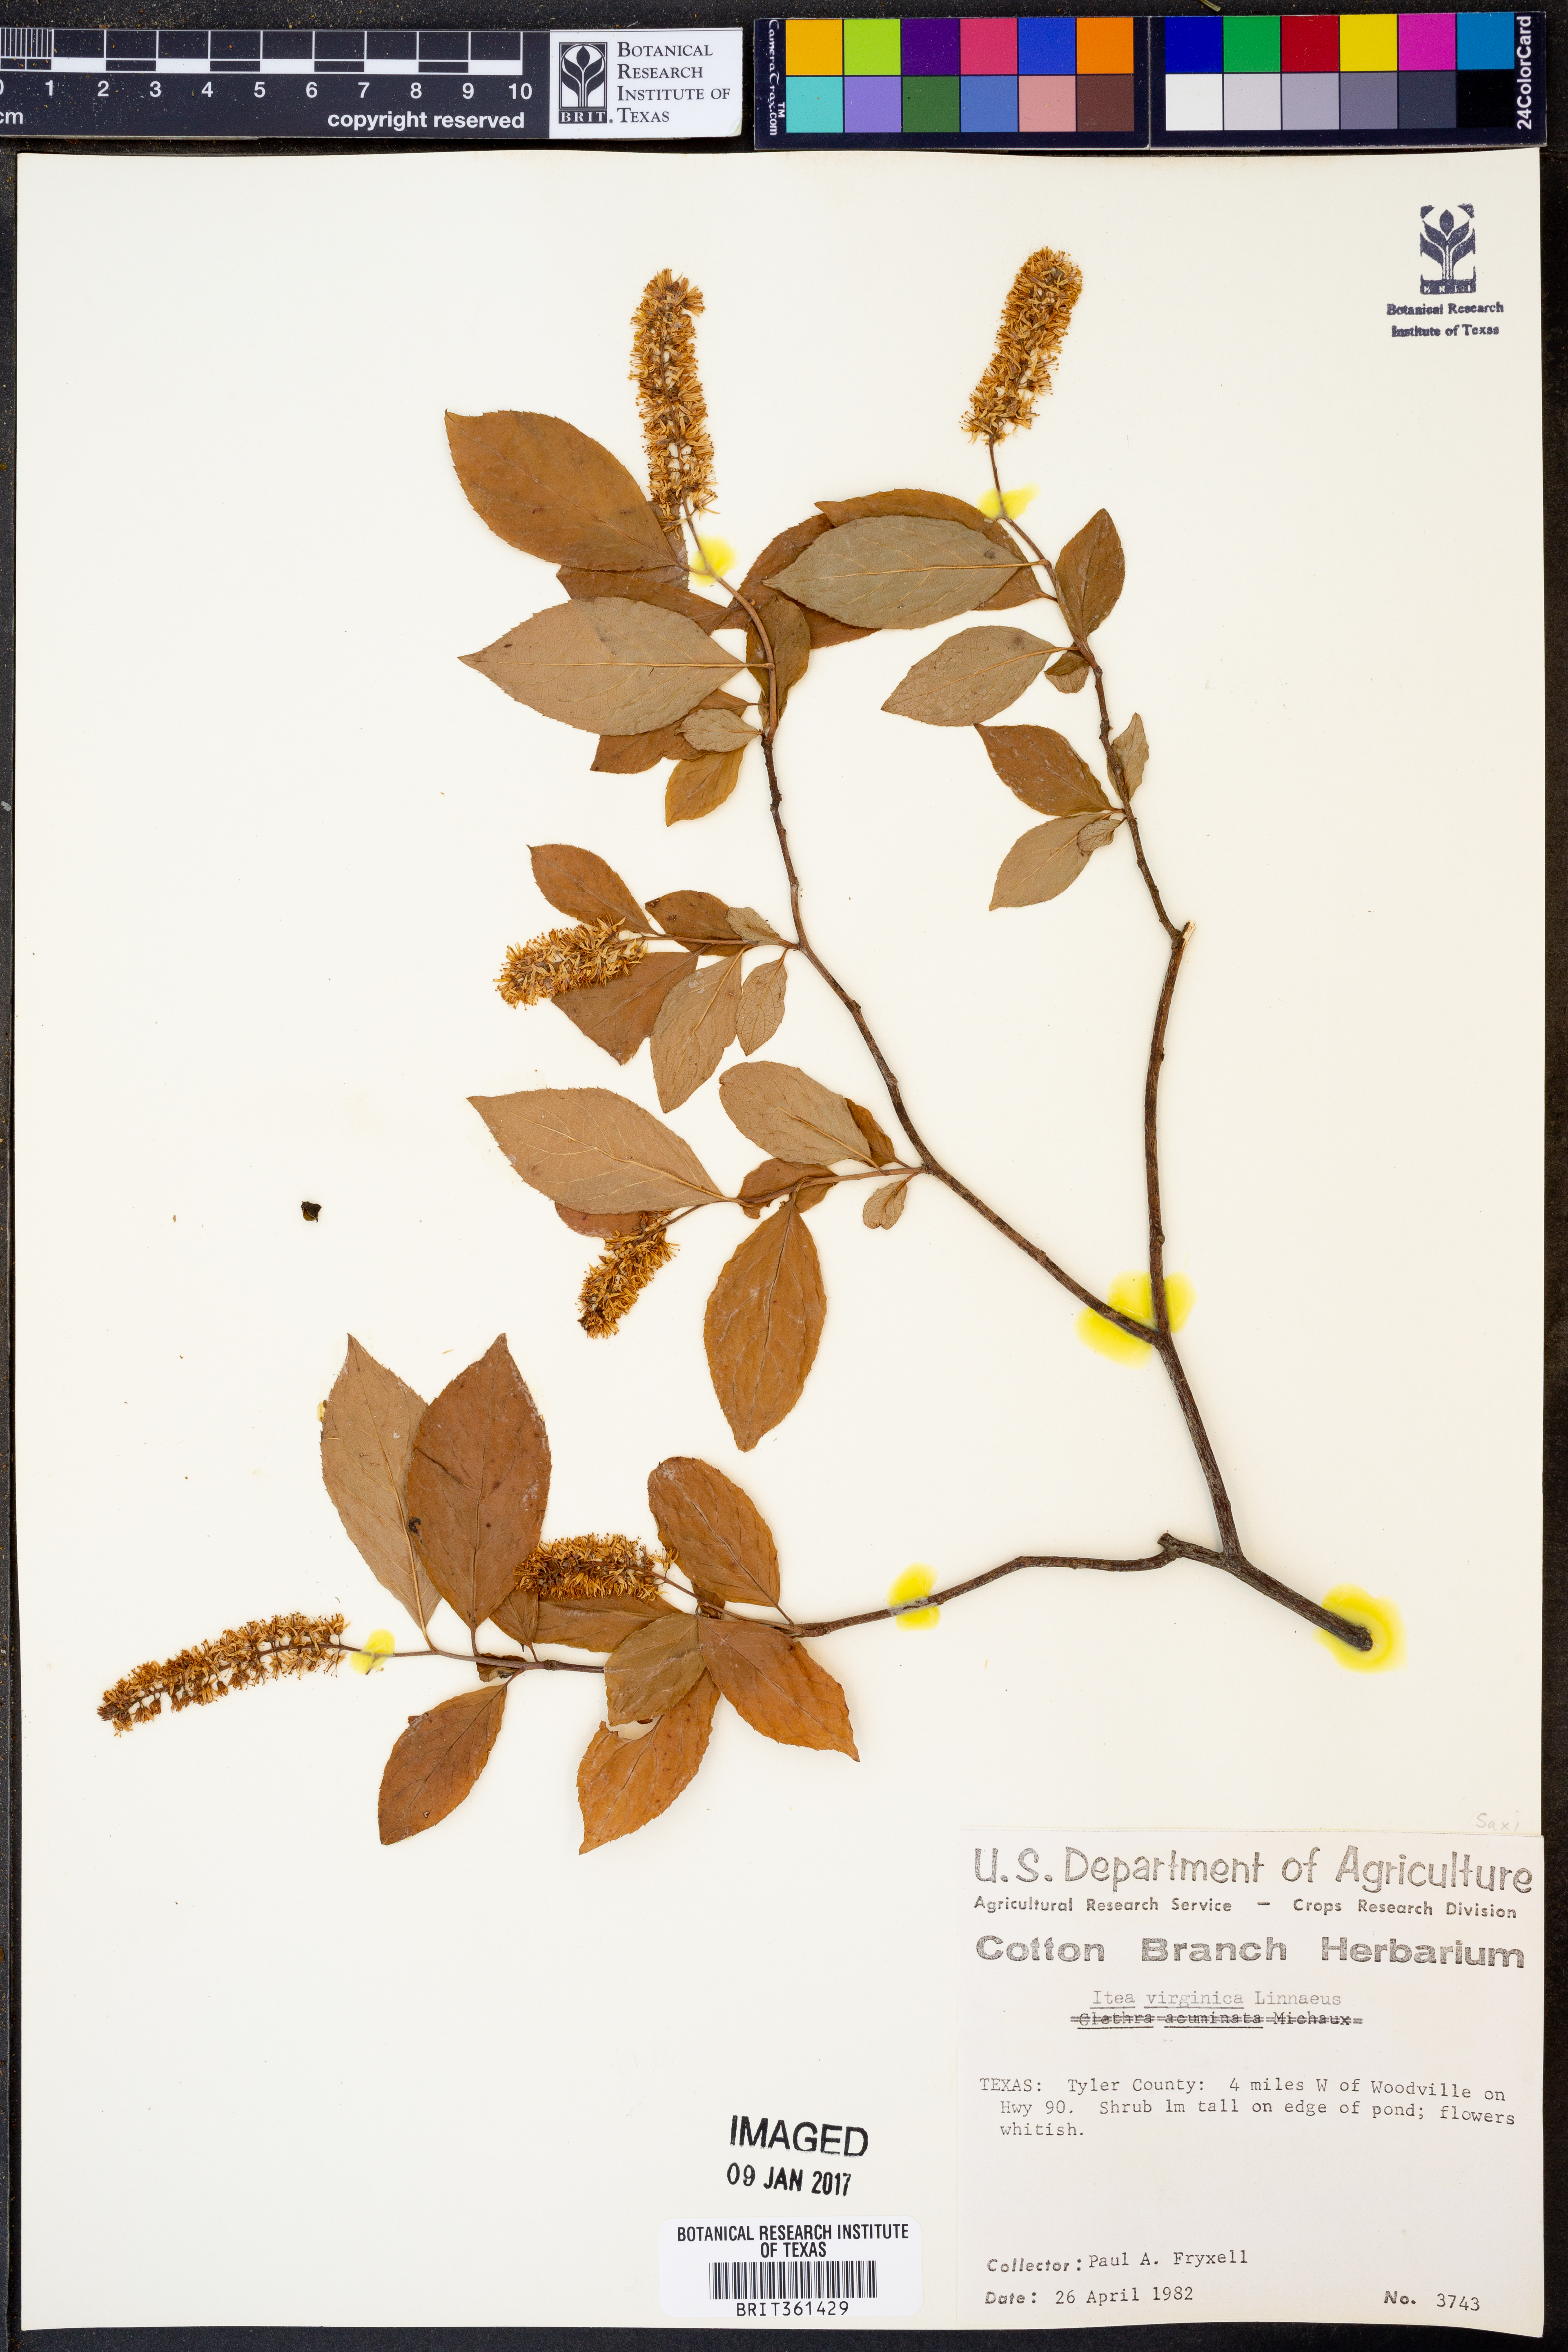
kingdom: Plantae
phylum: Tracheophyta
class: Magnoliopsida
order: Saxifragales
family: Iteaceae
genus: Itea
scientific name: Itea virginica
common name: Sweetspire
